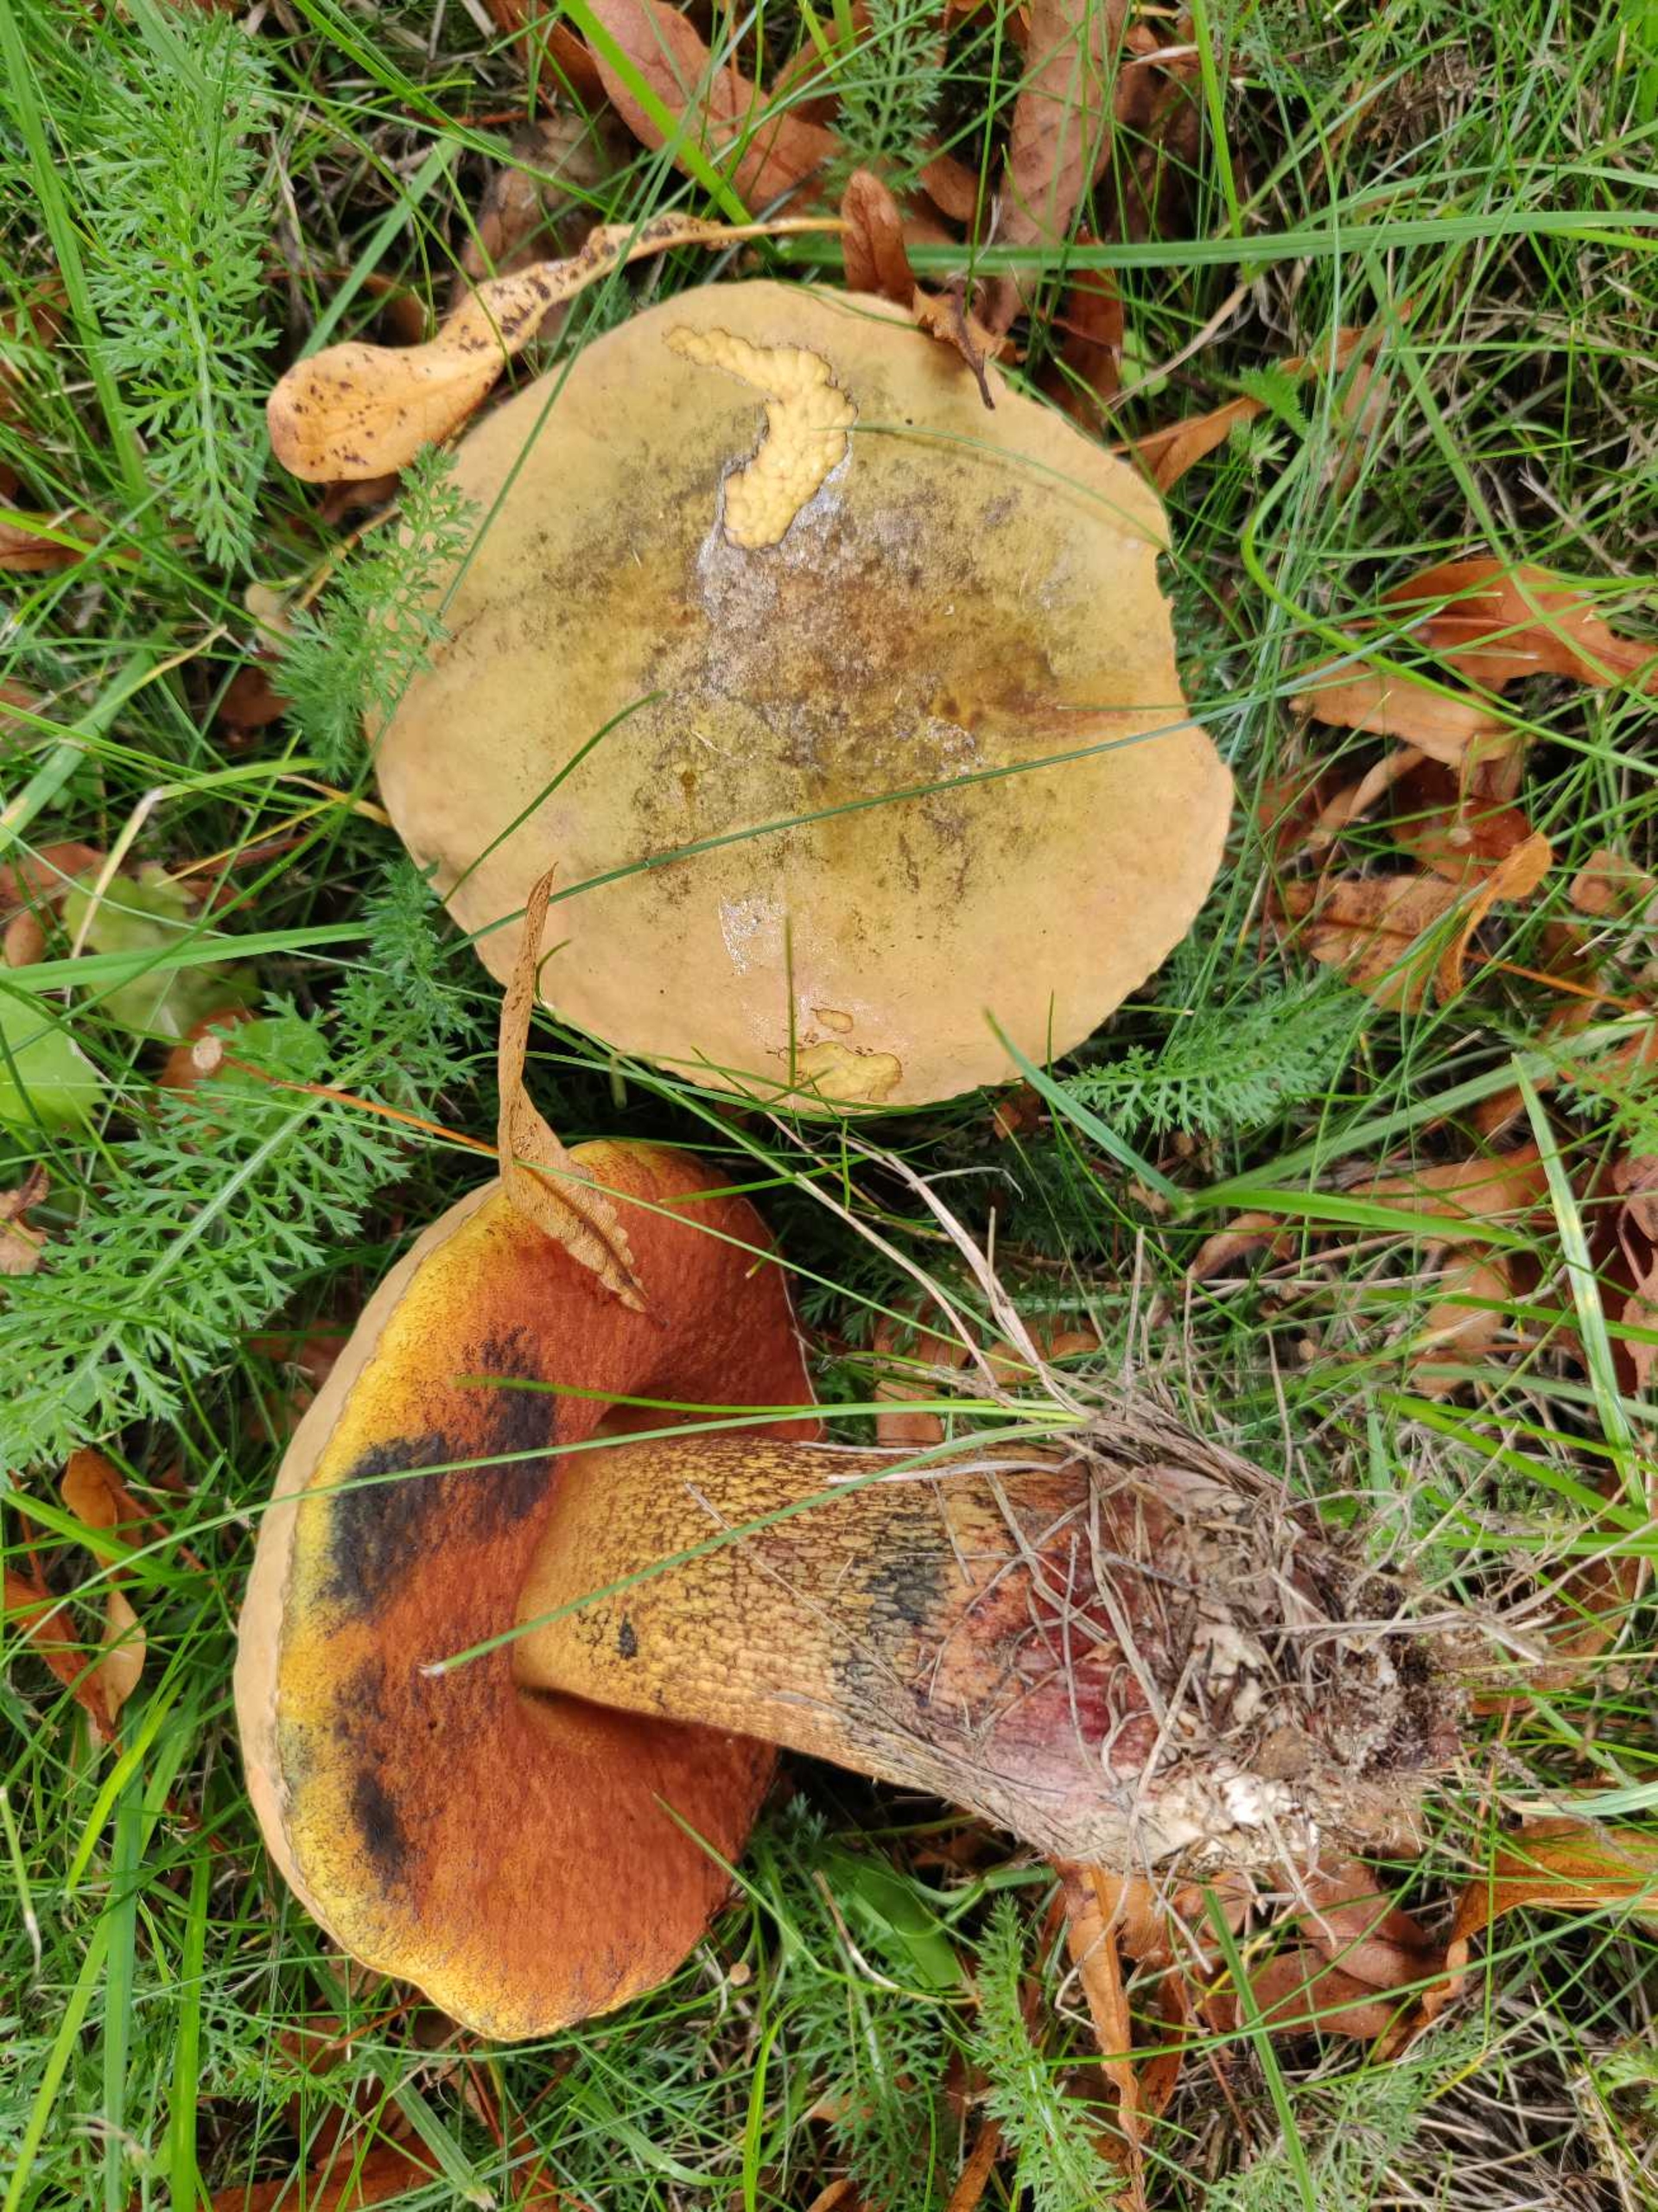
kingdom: Fungi
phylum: Basidiomycota
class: Agaricomycetes
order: Boletales
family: Boletaceae
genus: Suillellus
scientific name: Suillellus luridus
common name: Netstokket indigorørhat
